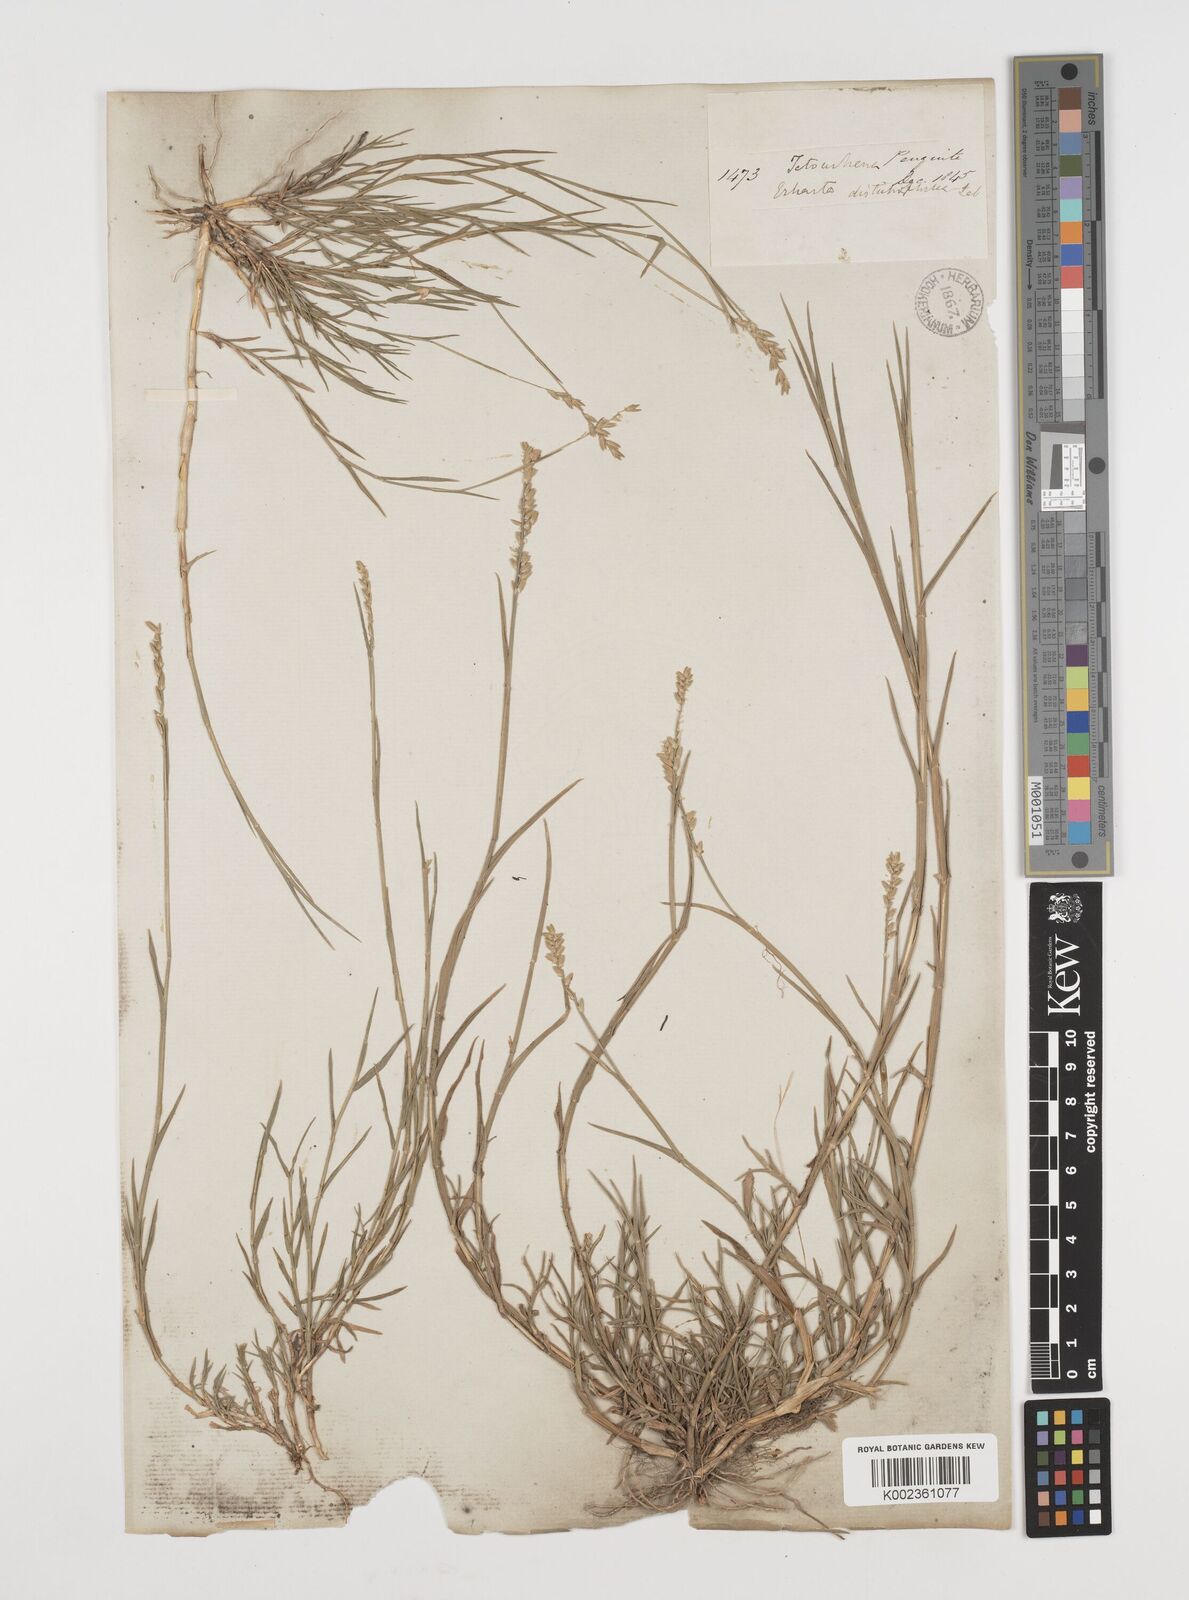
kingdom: Plantae
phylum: Tracheophyta
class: Liliopsida
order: Poales
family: Poaceae
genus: Tetrarrhena
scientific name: Tetrarrhena distichophylla
